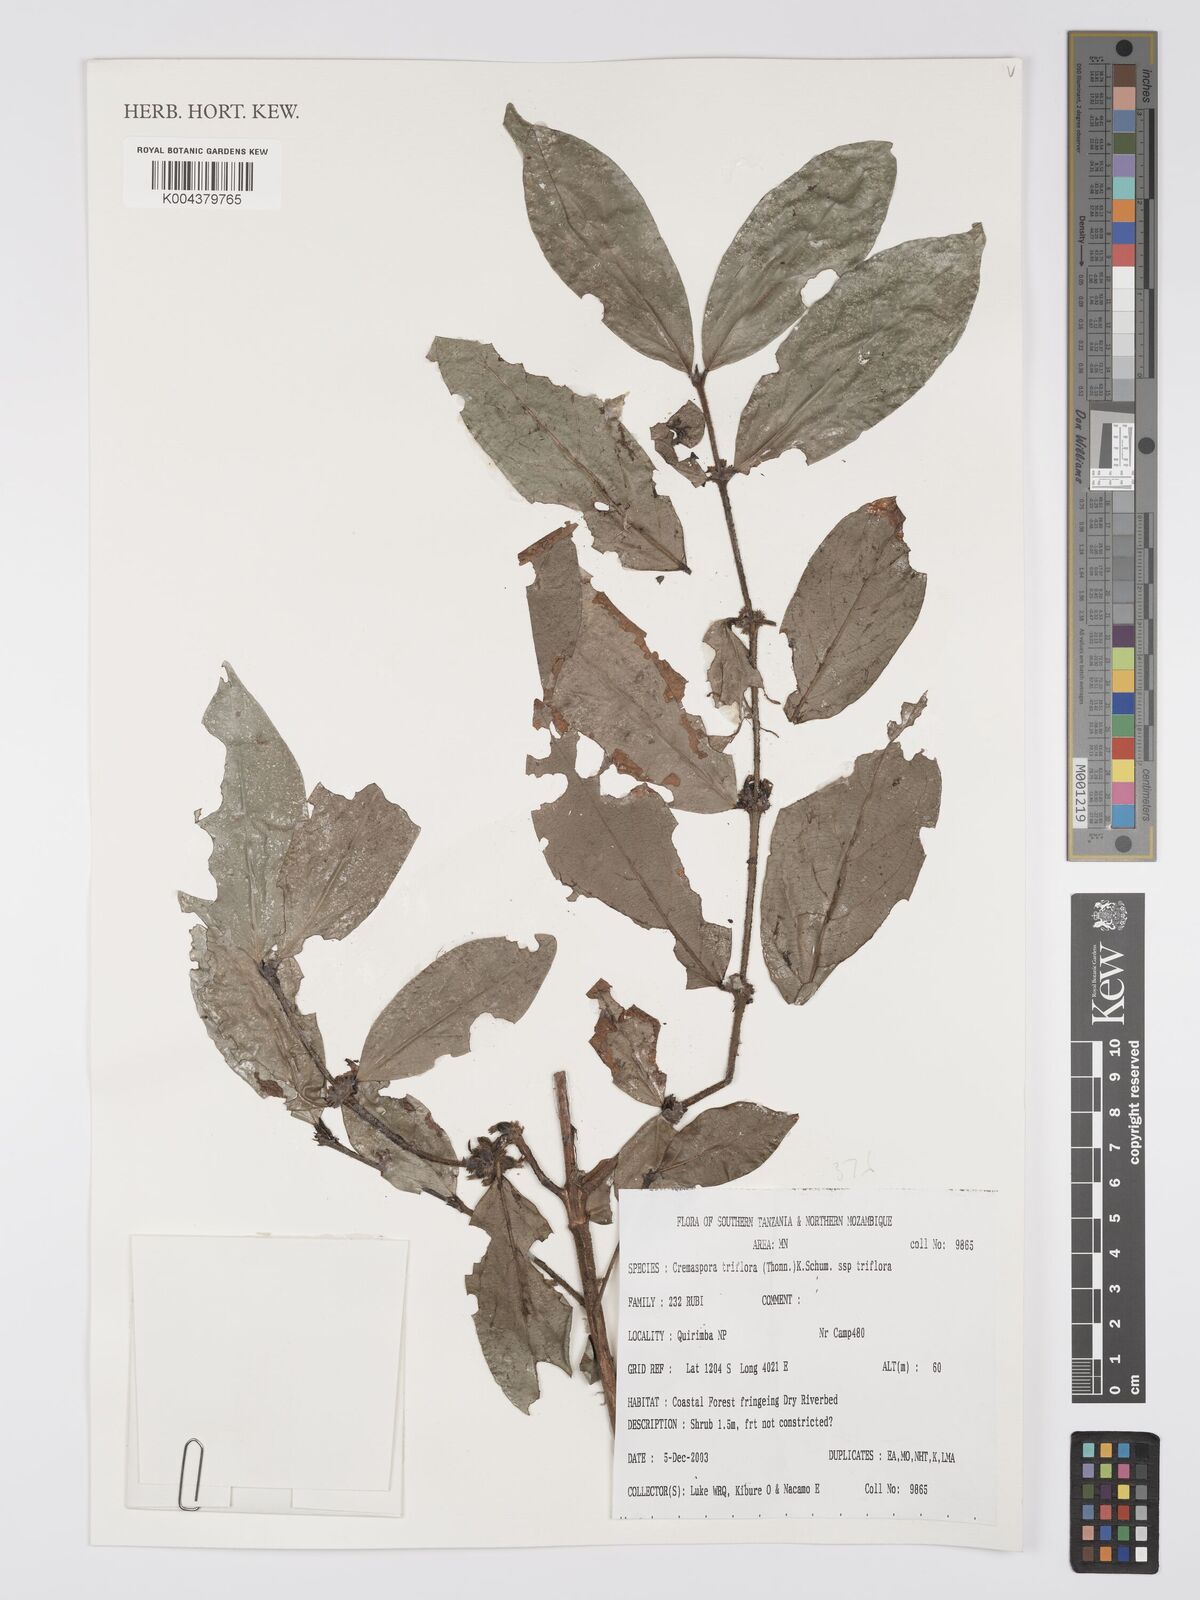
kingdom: Plantae
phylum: Tracheophyta
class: Magnoliopsida
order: Gentianales
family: Rubiaceae
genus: Cremaspora
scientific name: Cremaspora triflora
